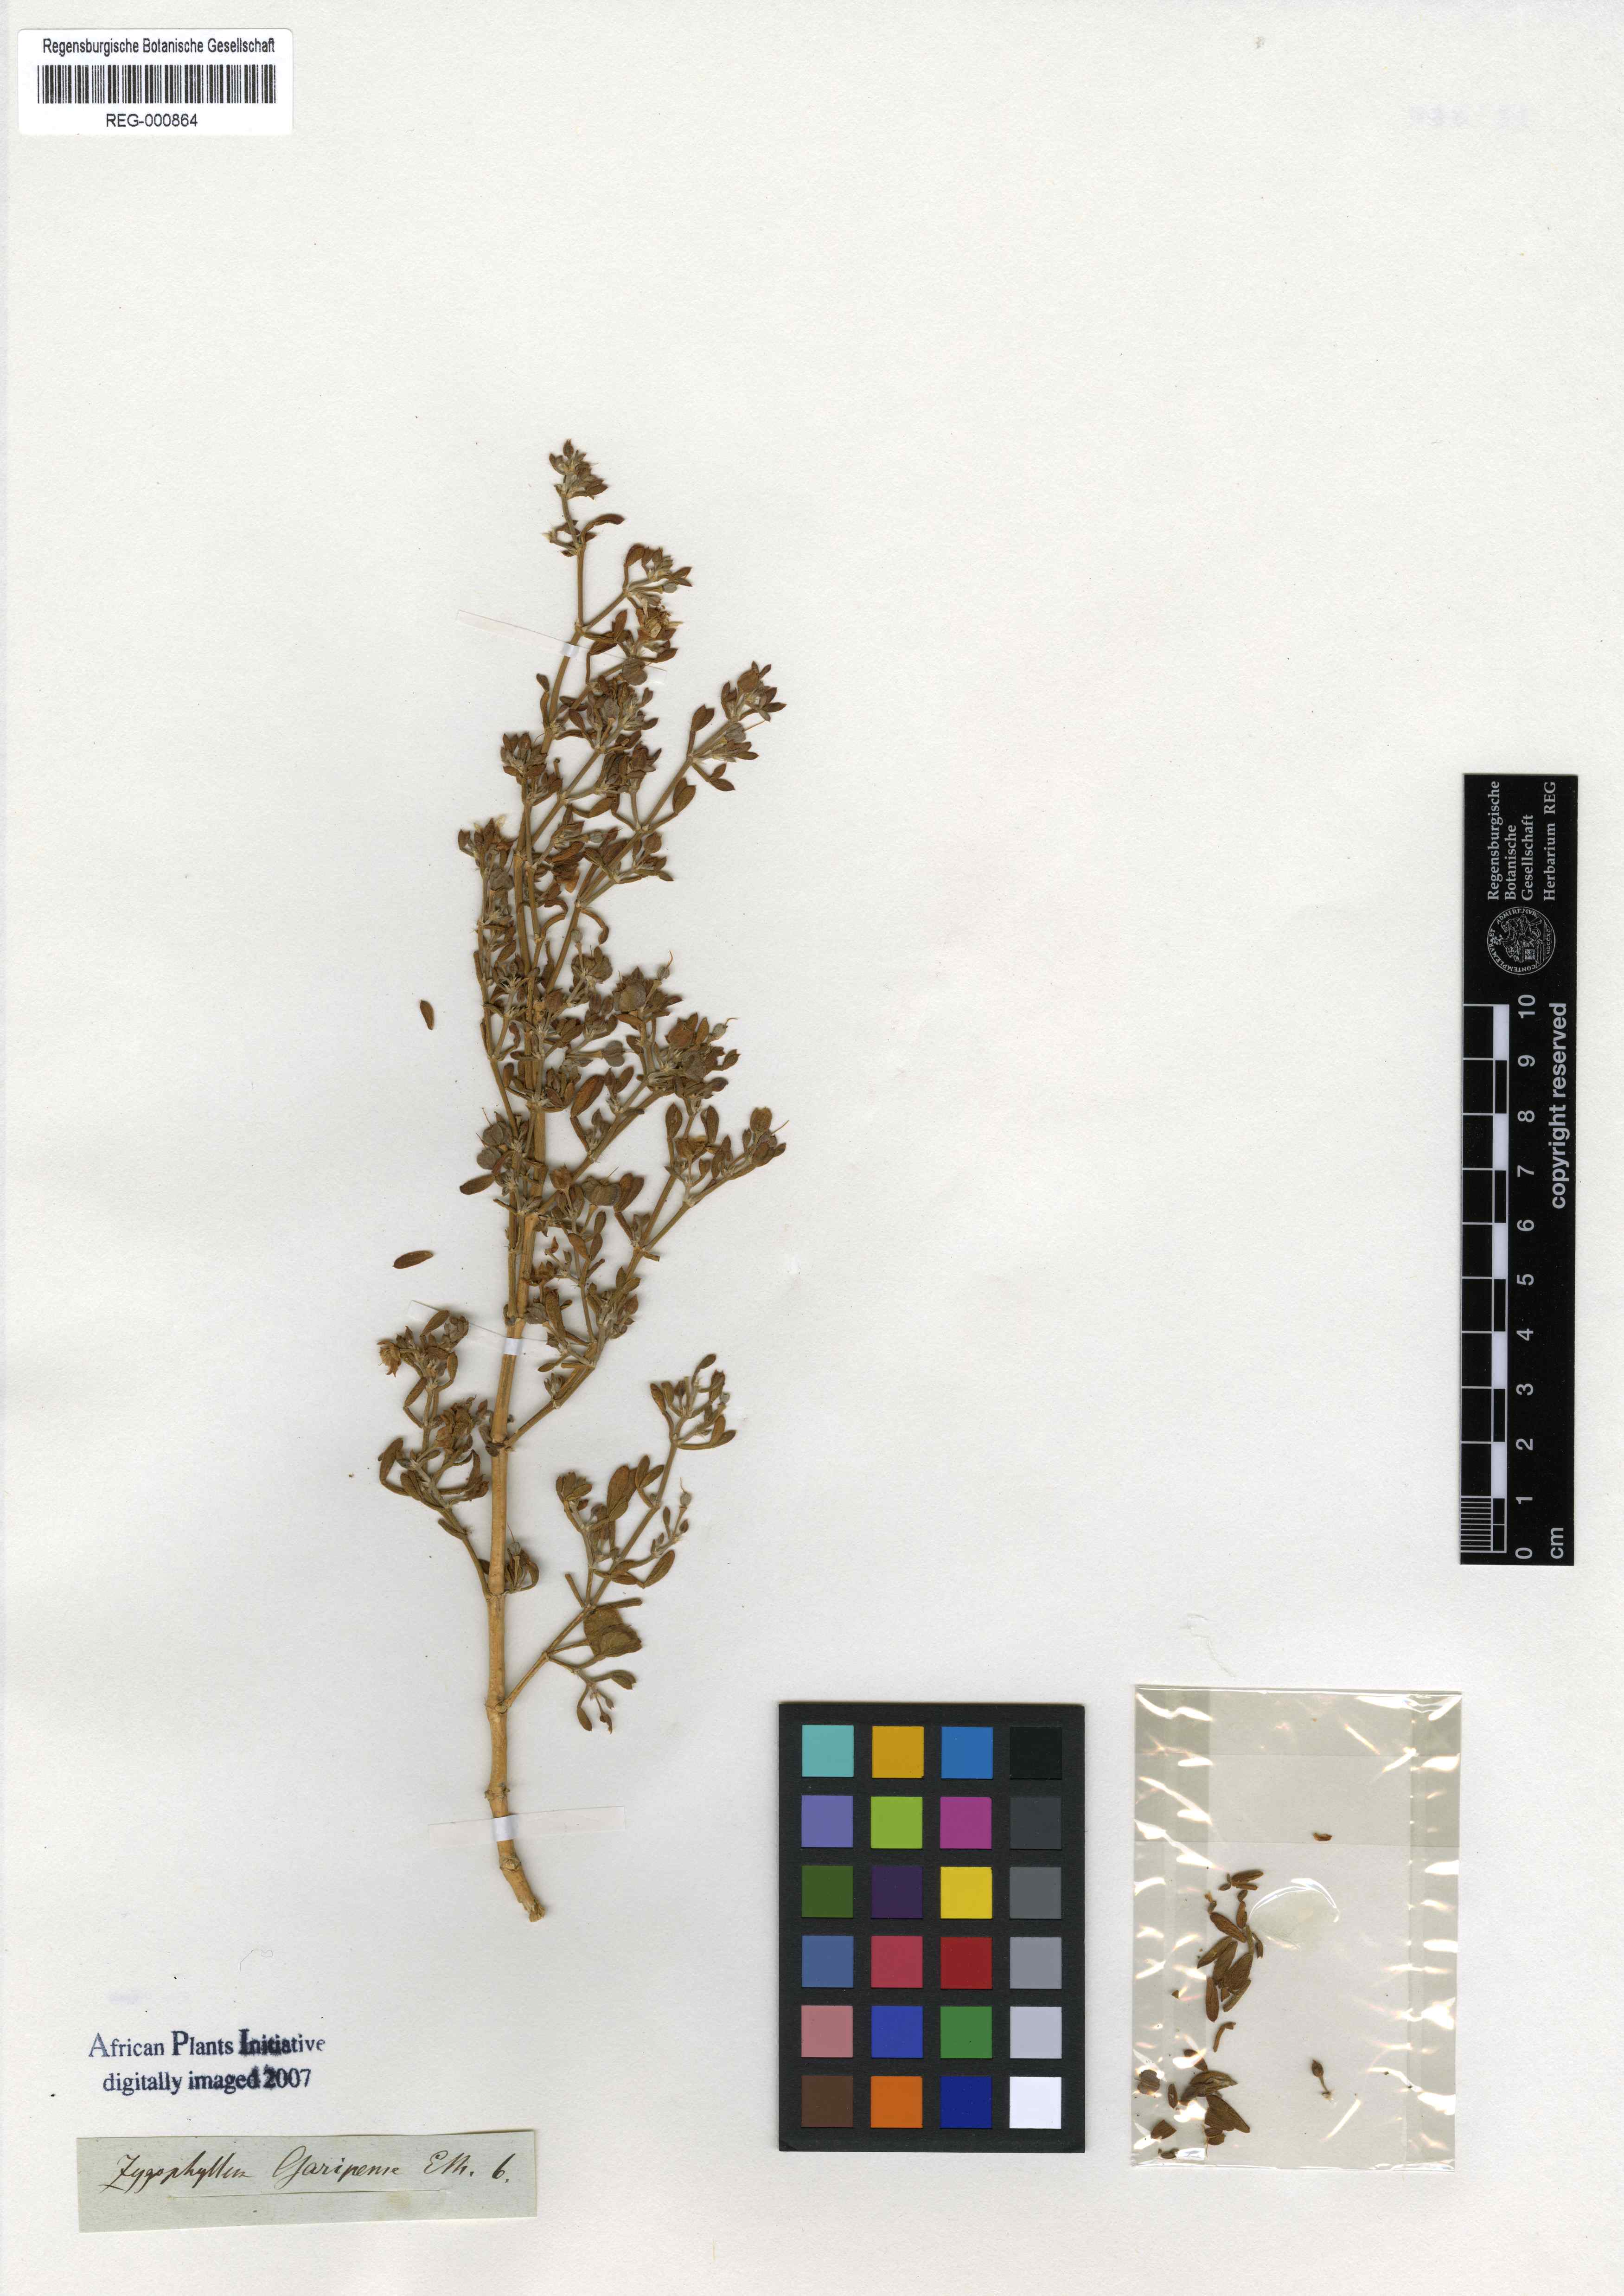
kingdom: Plantae
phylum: Tracheophyta
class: Magnoliopsida
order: Zygophyllales
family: Zygophyllaceae
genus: Tetraena
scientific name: Tetraena microcarpa
